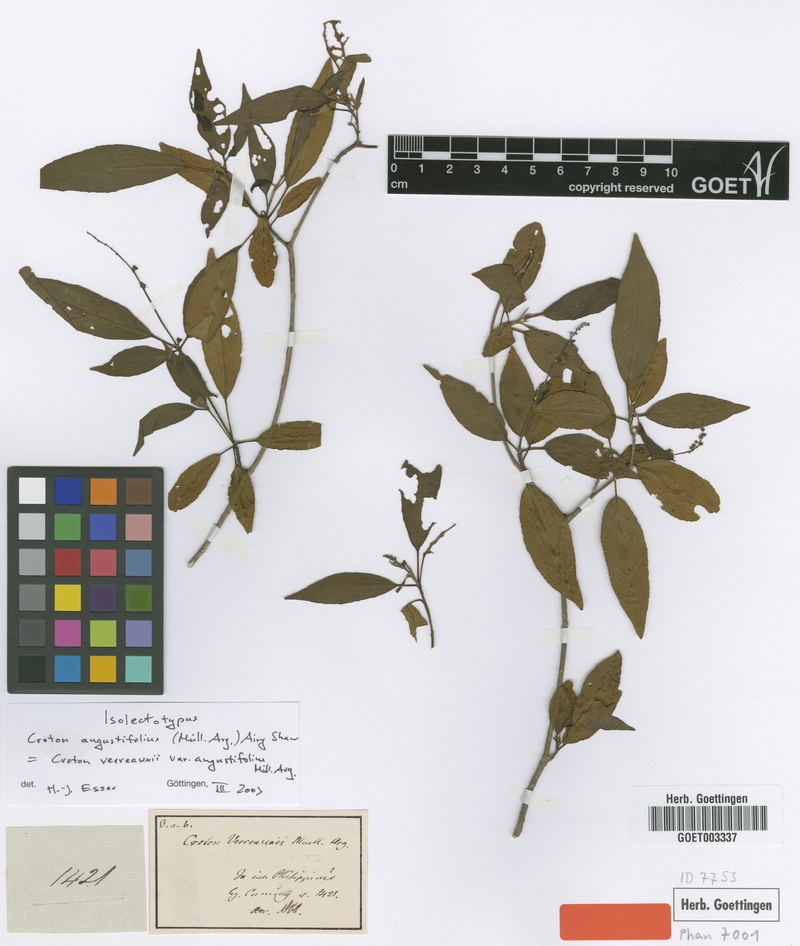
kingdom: Plantae
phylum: Tracheophyta
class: Magnoliopsida
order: Malpighiales
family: Euphorbiaceae
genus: Croton
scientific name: Croton verreauxii
